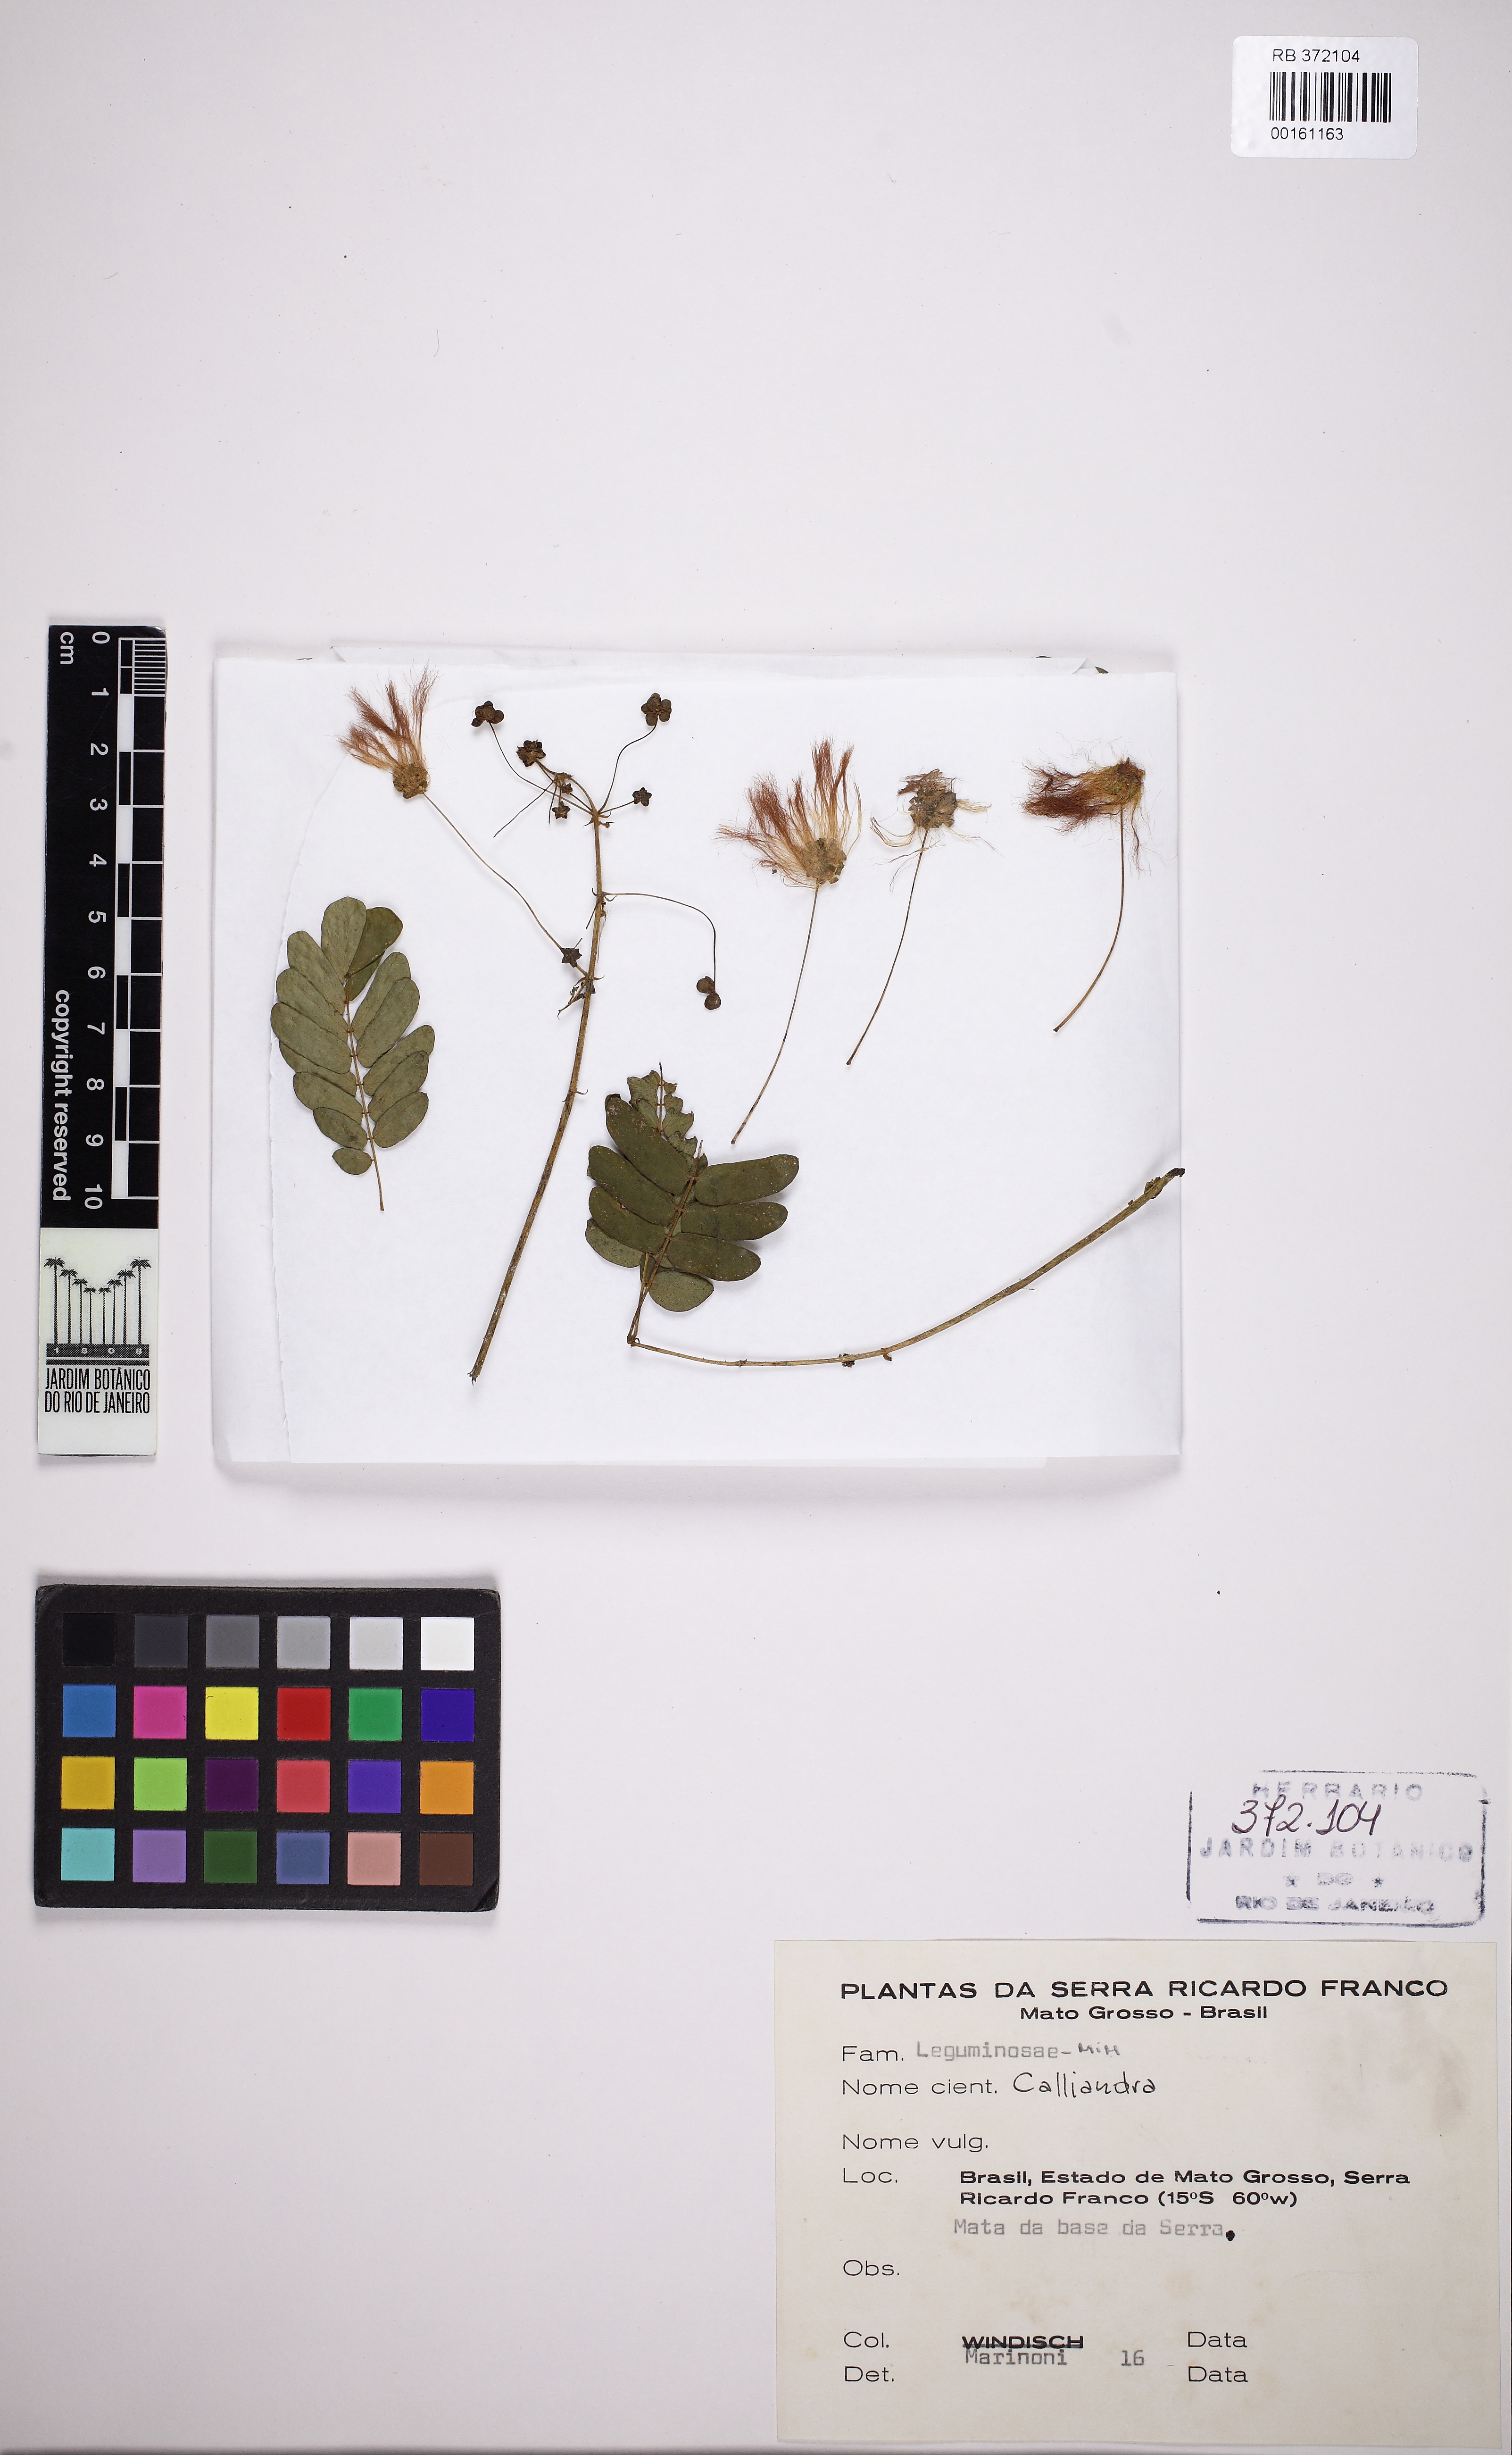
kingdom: Plantae
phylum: Tracheophyta
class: Magnoliopsida
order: Fabales
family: Fabaceae
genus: Calliandra
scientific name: Calliandra
